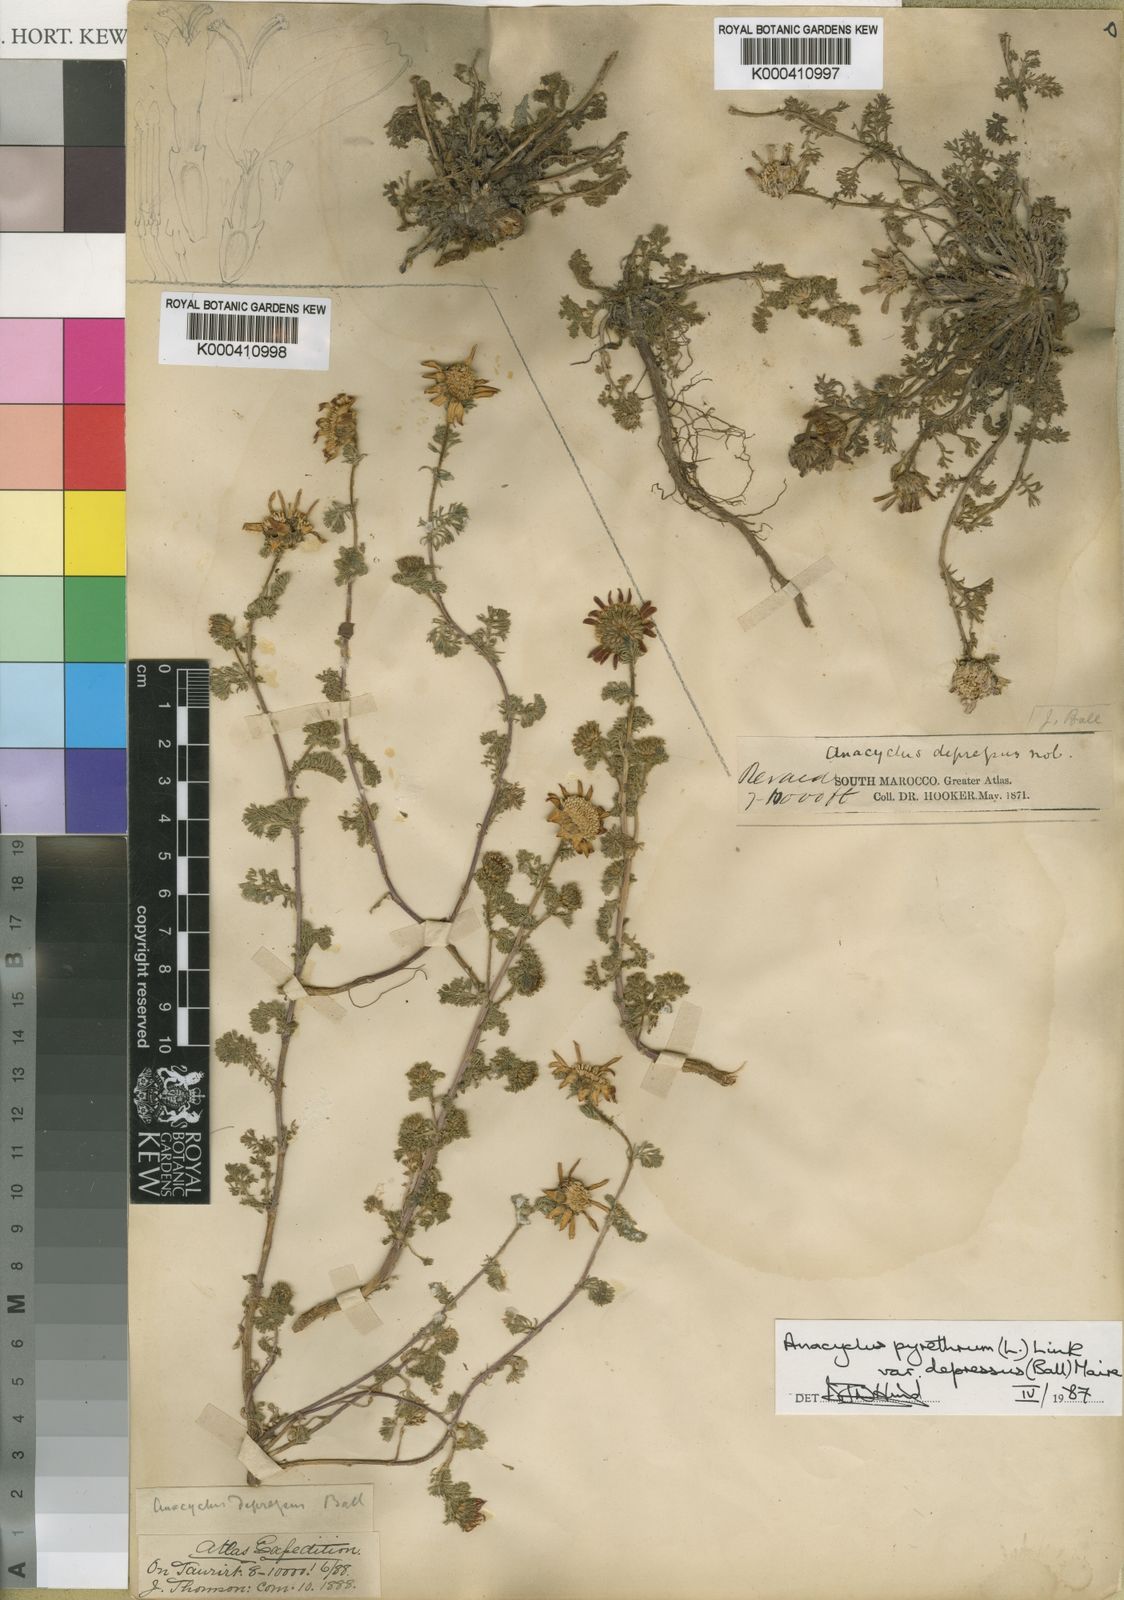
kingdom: Plantae
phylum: Tracheophyta
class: Magnoliopsida
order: Asterales
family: Asteraceae
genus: Anacyclus
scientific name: Anacyclus pyrethrum
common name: Mt. atlas daisy
